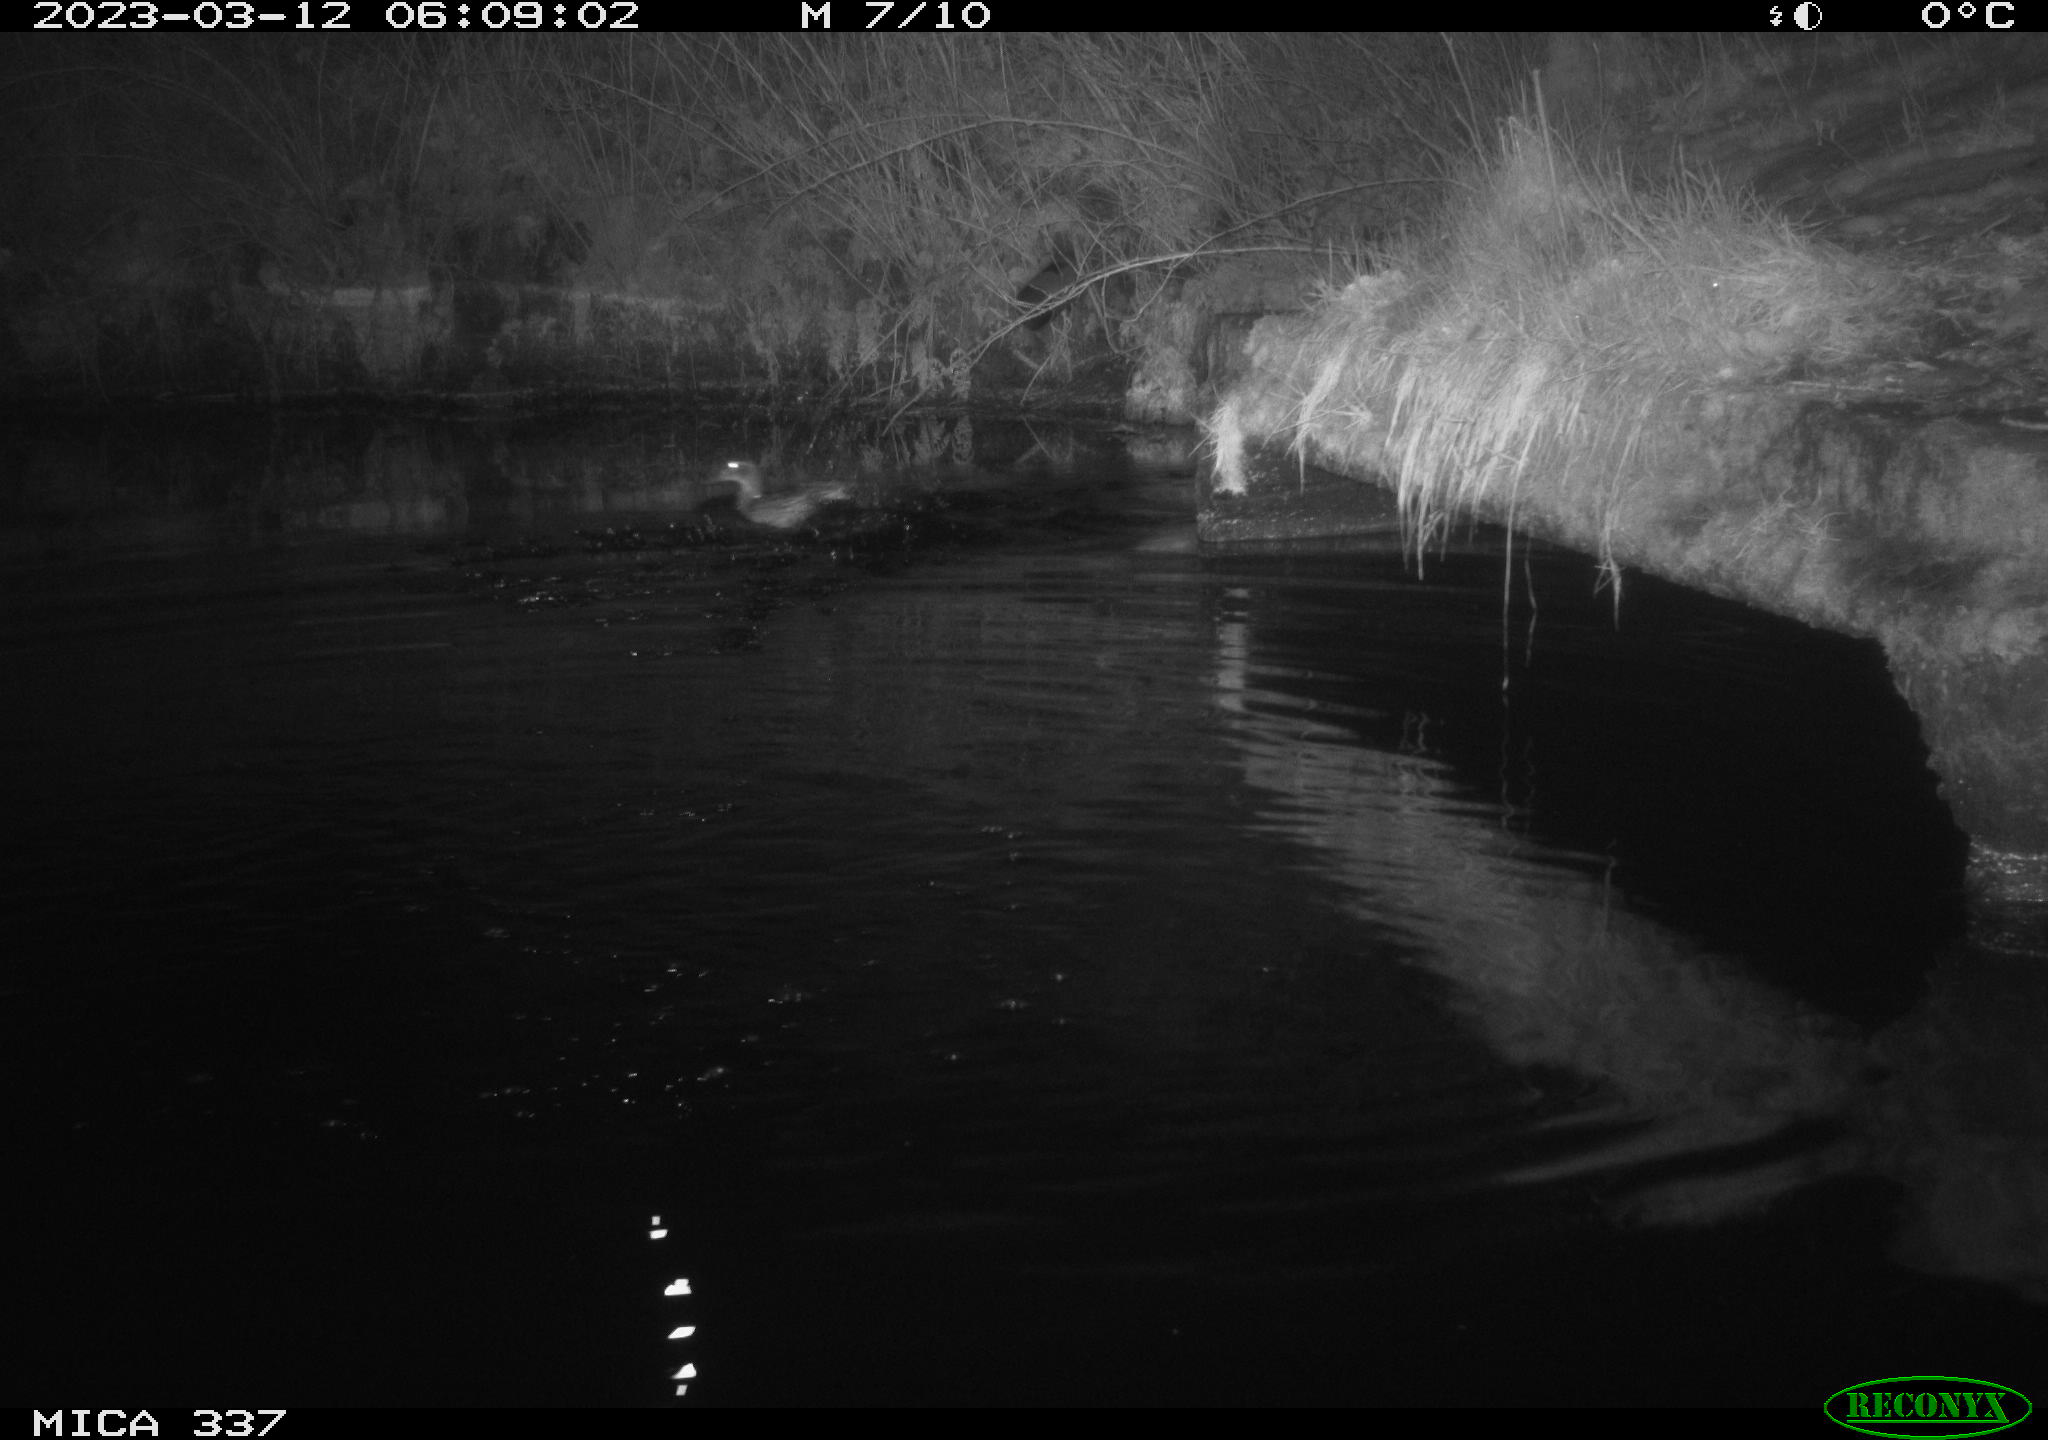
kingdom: Animalia
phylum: Chordata
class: Aves
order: Anseriformes
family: Anatidae
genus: Anas
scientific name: Anas
